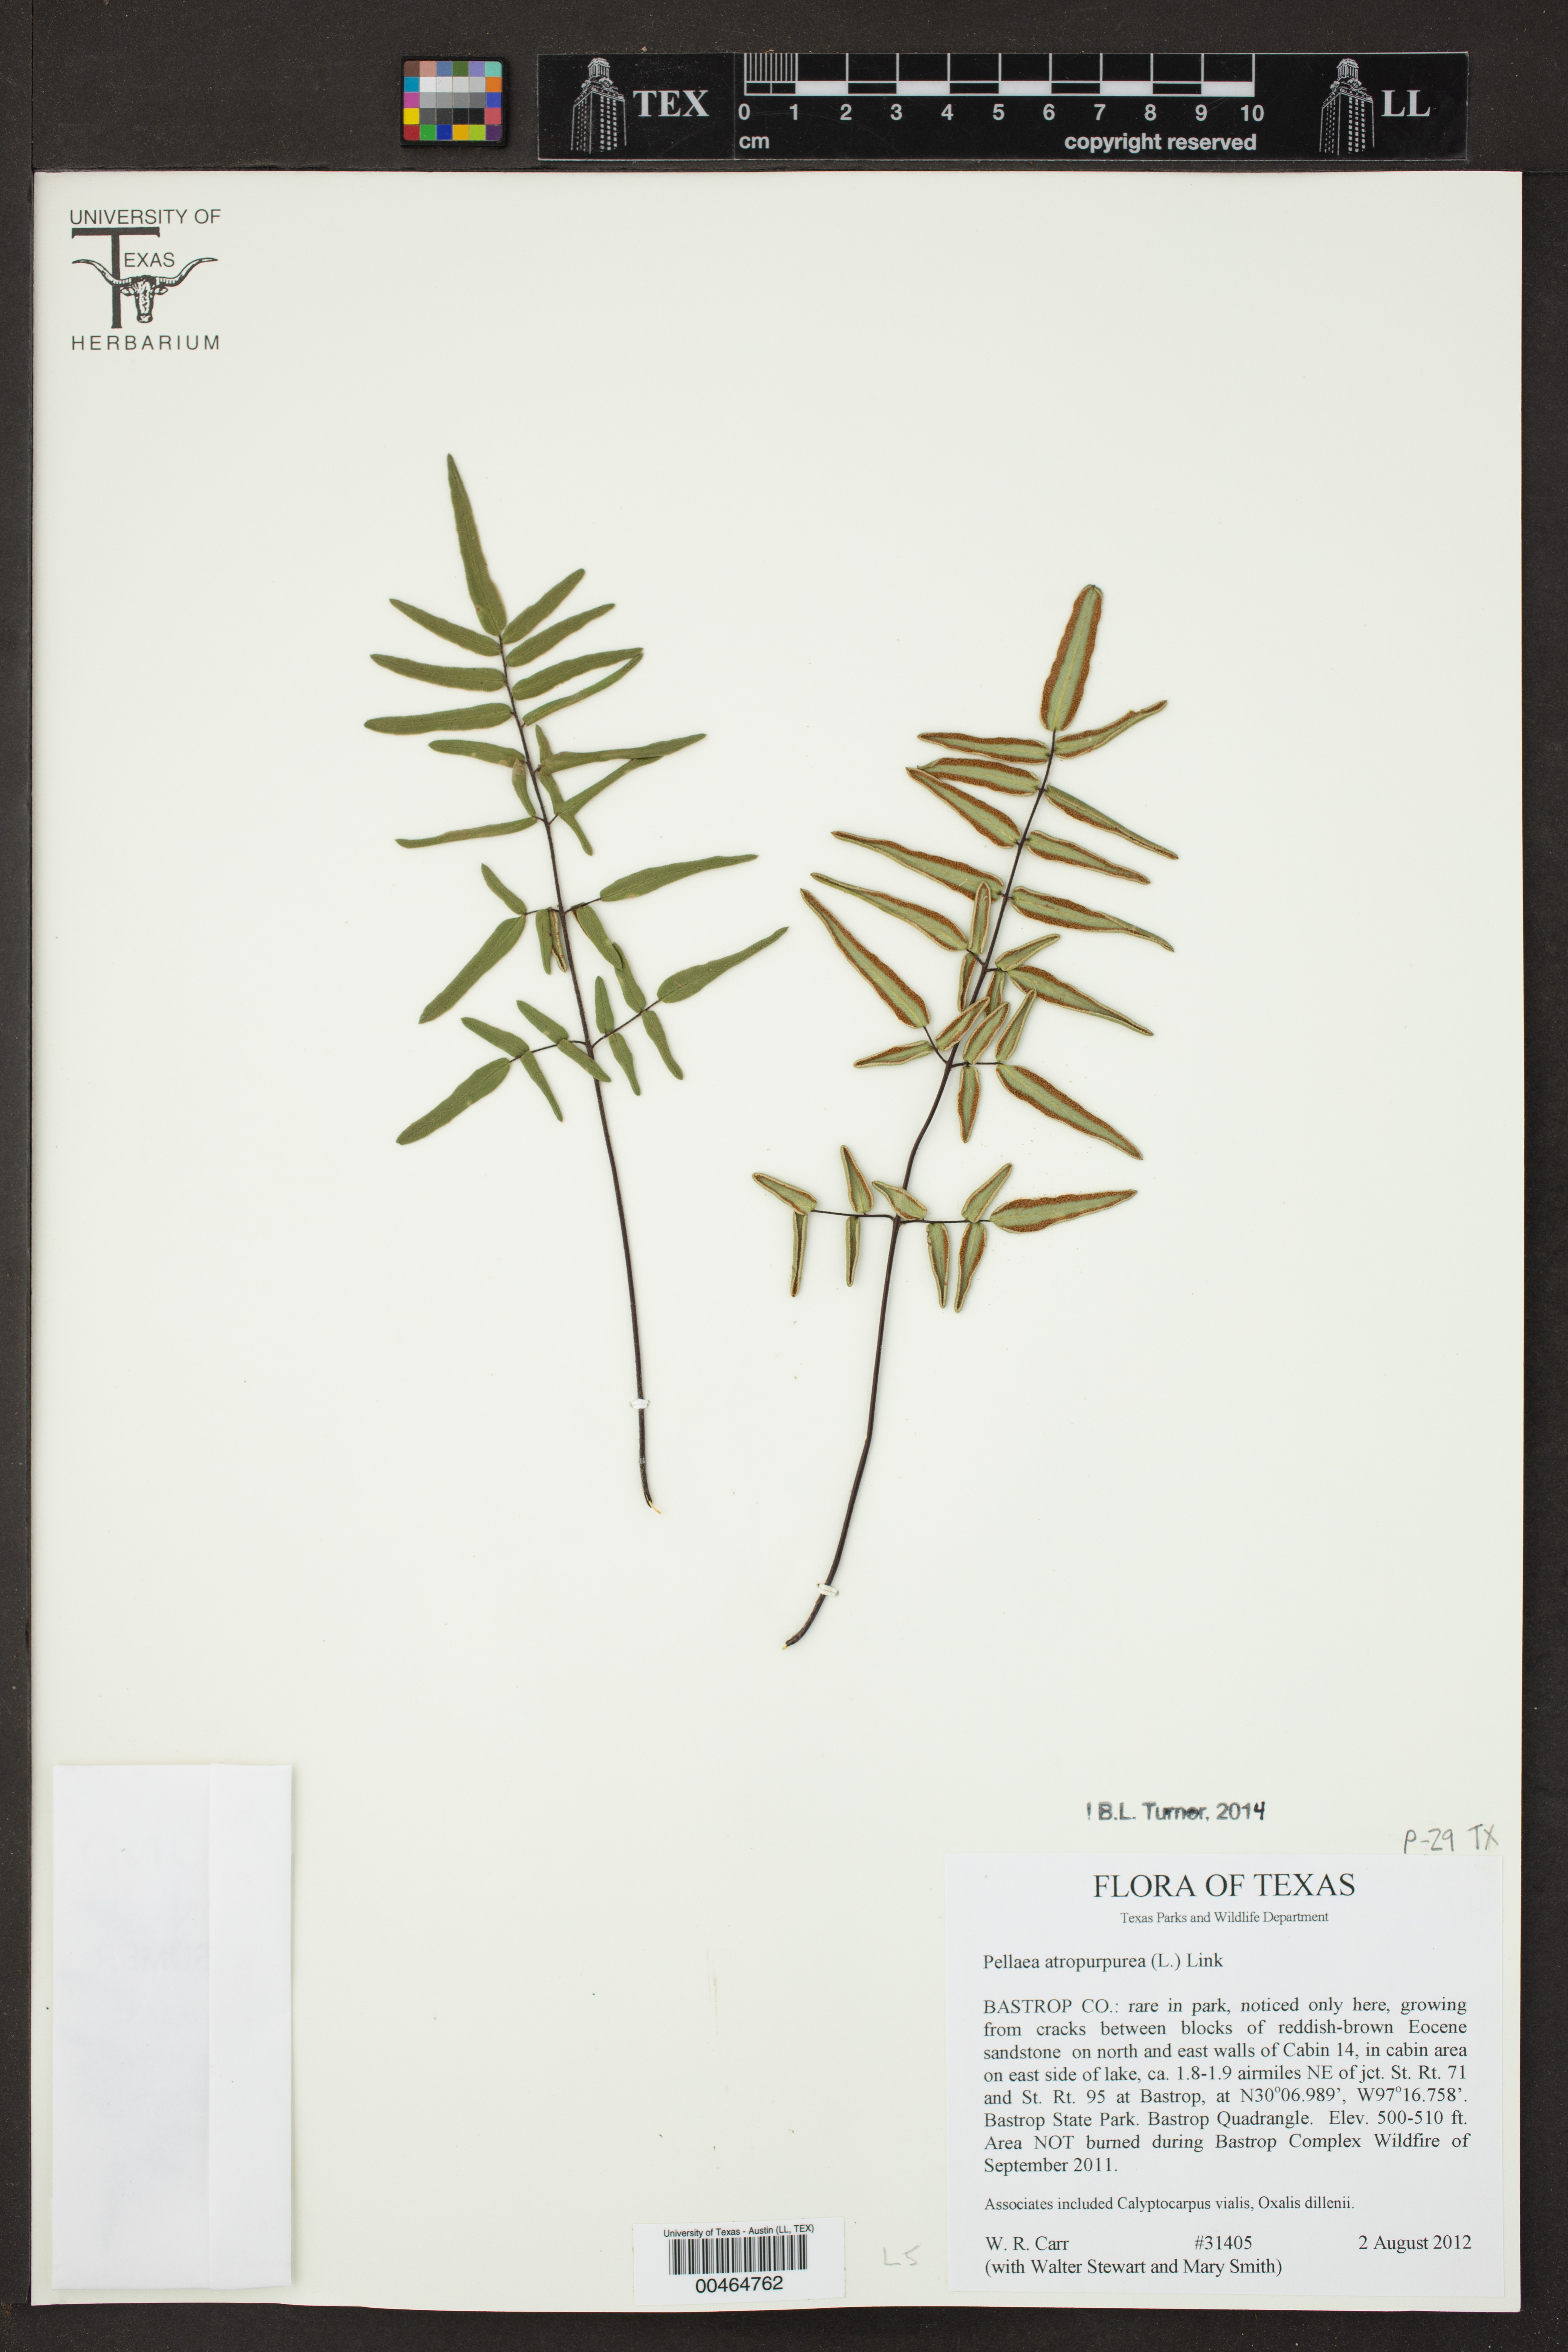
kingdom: Plantae
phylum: Tracheophyta
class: Polypodiopsida
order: Polypodiales
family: Pteridaceae
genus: Pellaea
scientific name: Pellaea atropurpurea
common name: Hairy cliffbrake
